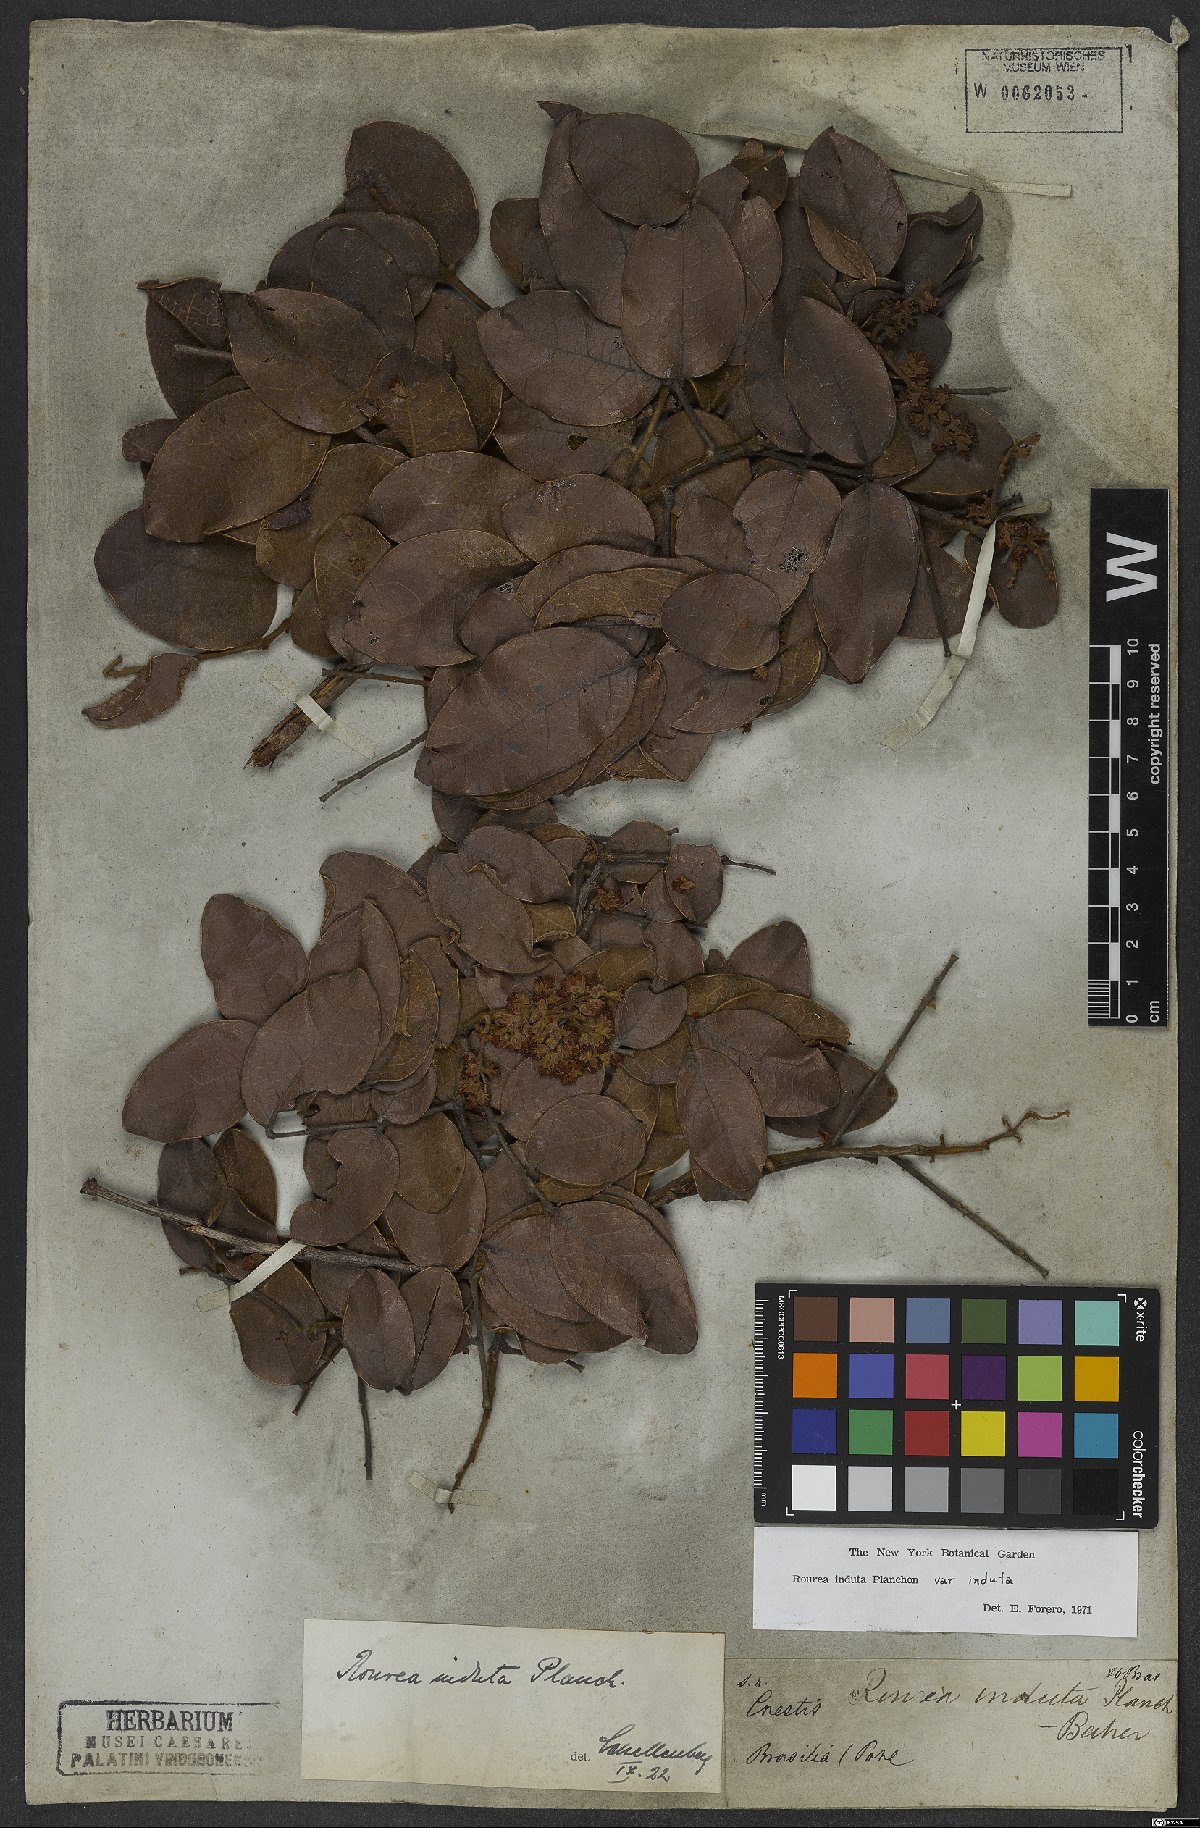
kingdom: Plantae
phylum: Tracheophyta
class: Magnoliopsida
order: Oxalidales
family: Connaraceae
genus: Rourea
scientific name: Rourea induta
